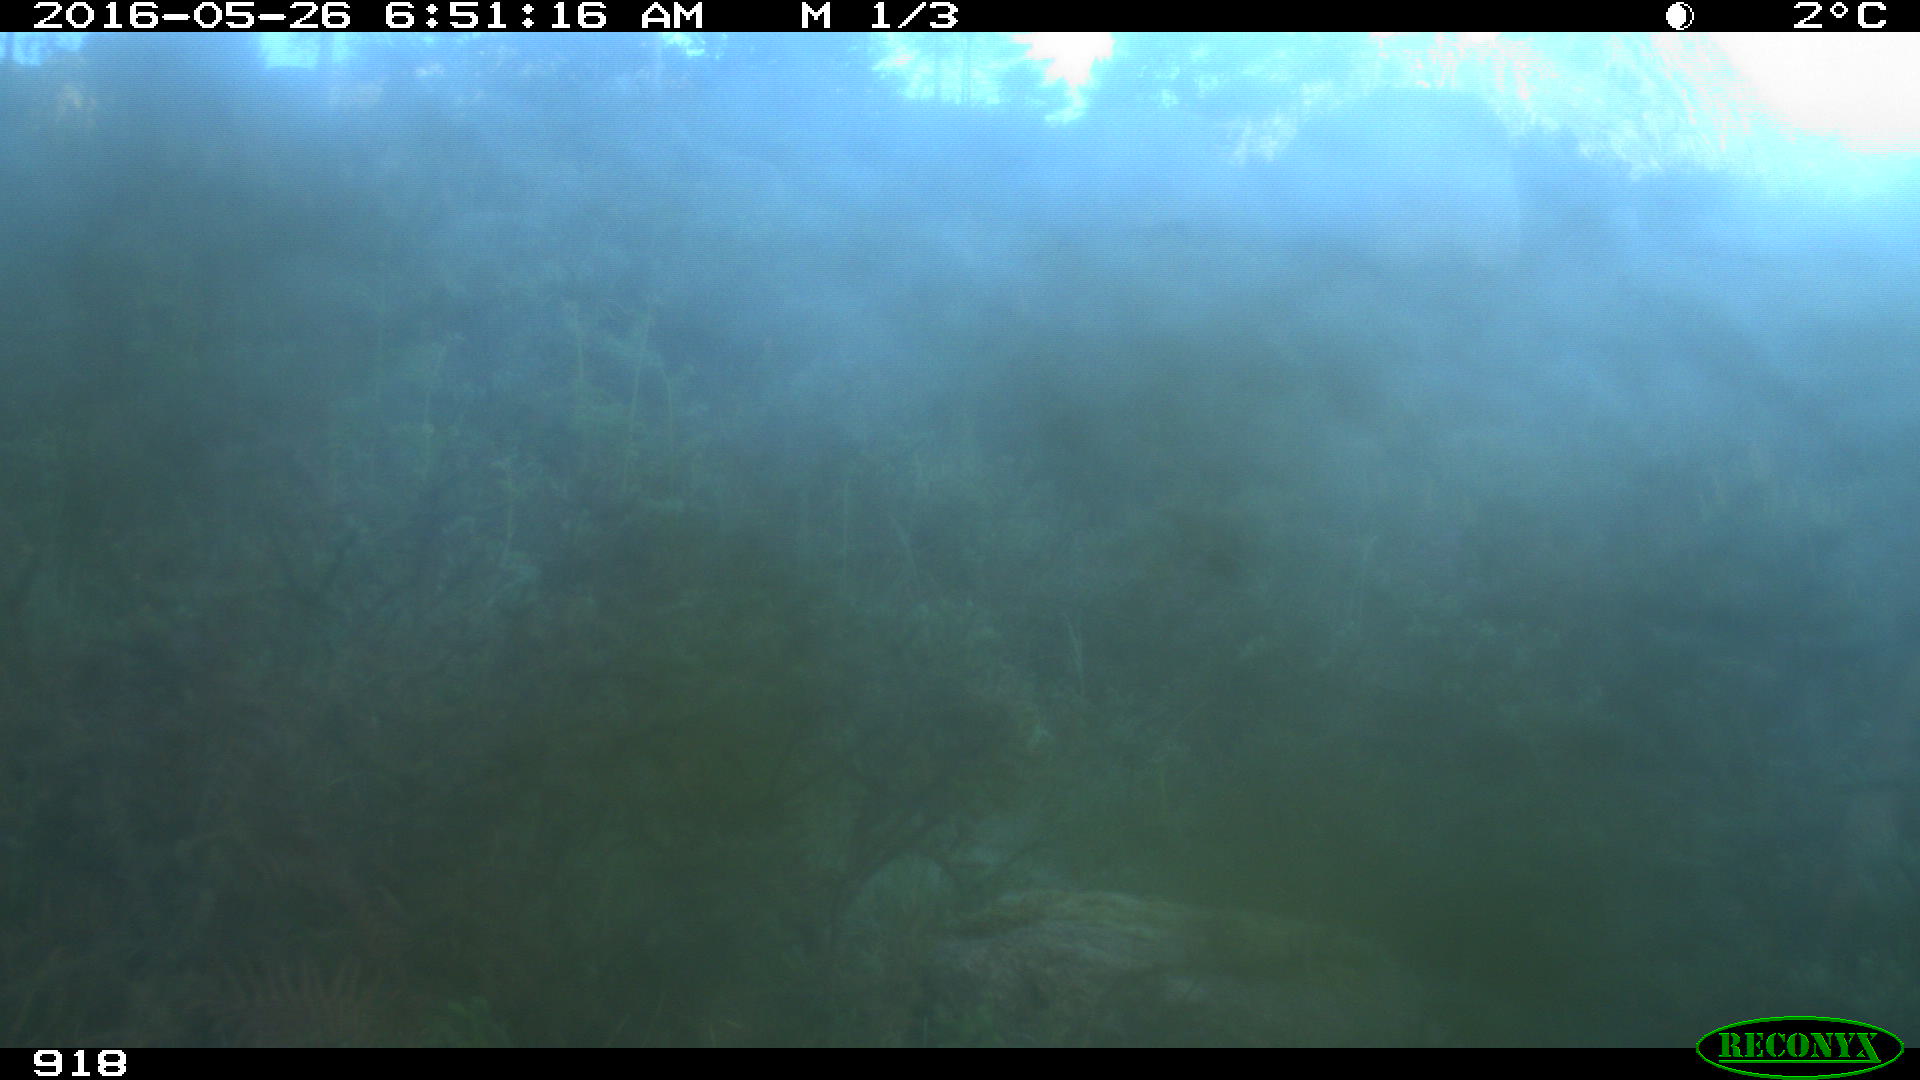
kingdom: Animalia
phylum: Chordata
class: Mammalia
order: Artiodactyla
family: Cervidae
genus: Capreolus
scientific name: Capreolus capreolus
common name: Western roe deer
